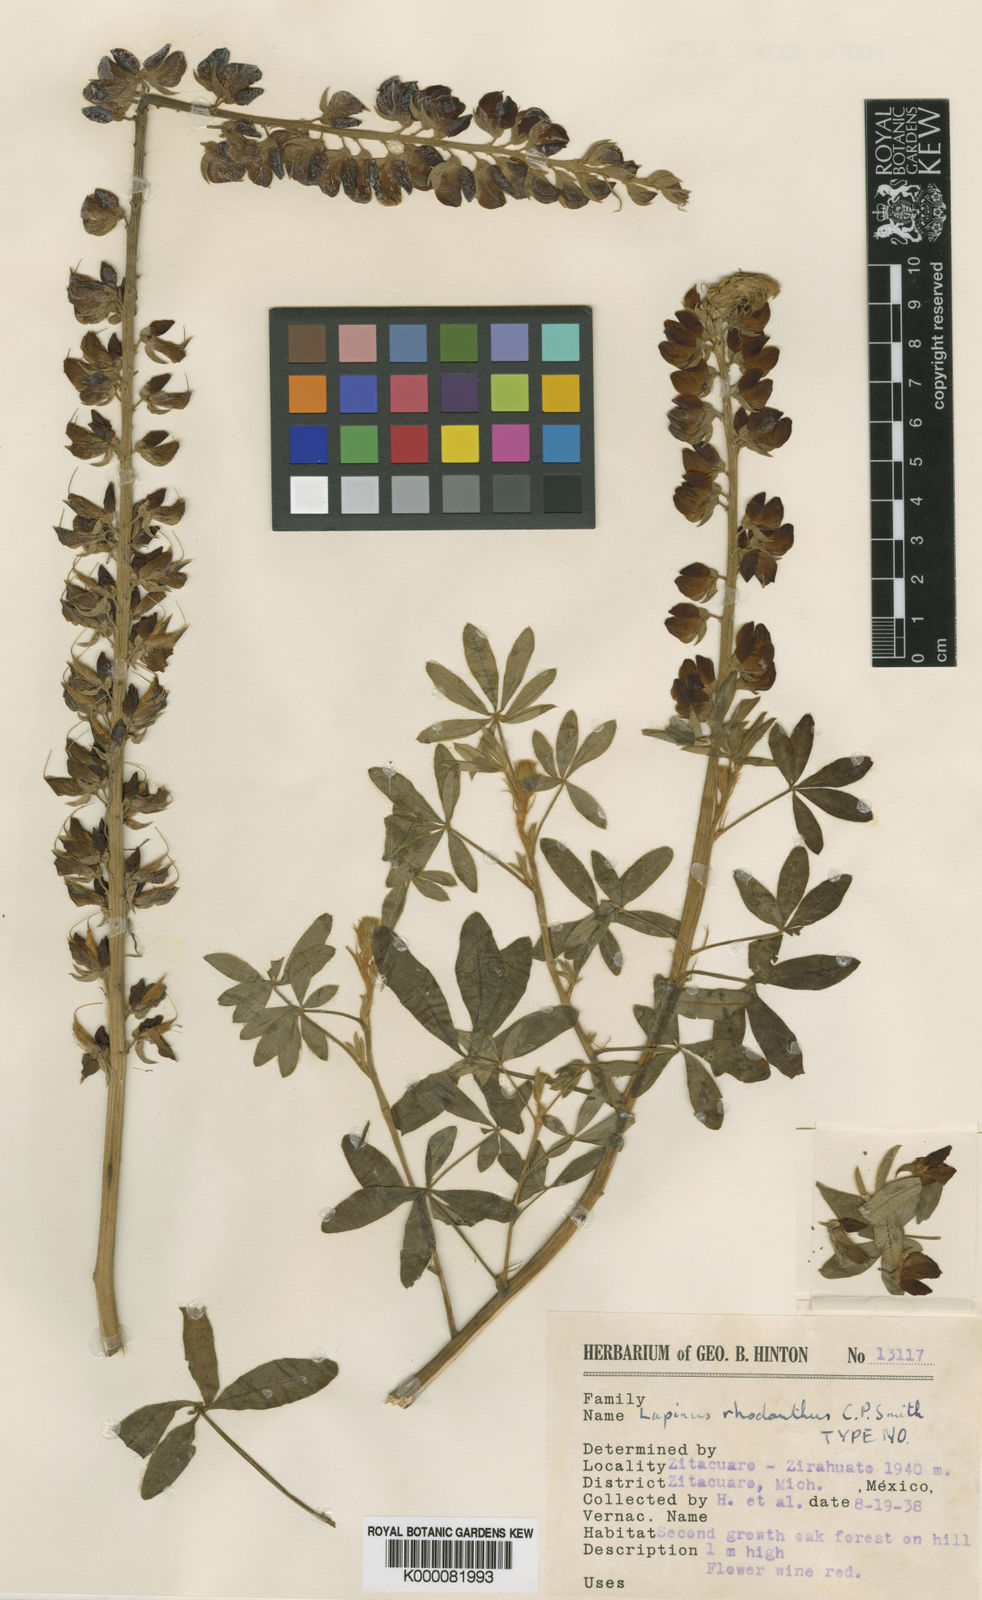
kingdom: Plantae
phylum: Tracheophyta
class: Magnoliopsida
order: Fabales
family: Fabaceae
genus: Lupinus
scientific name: Lupinus rhodanthus
